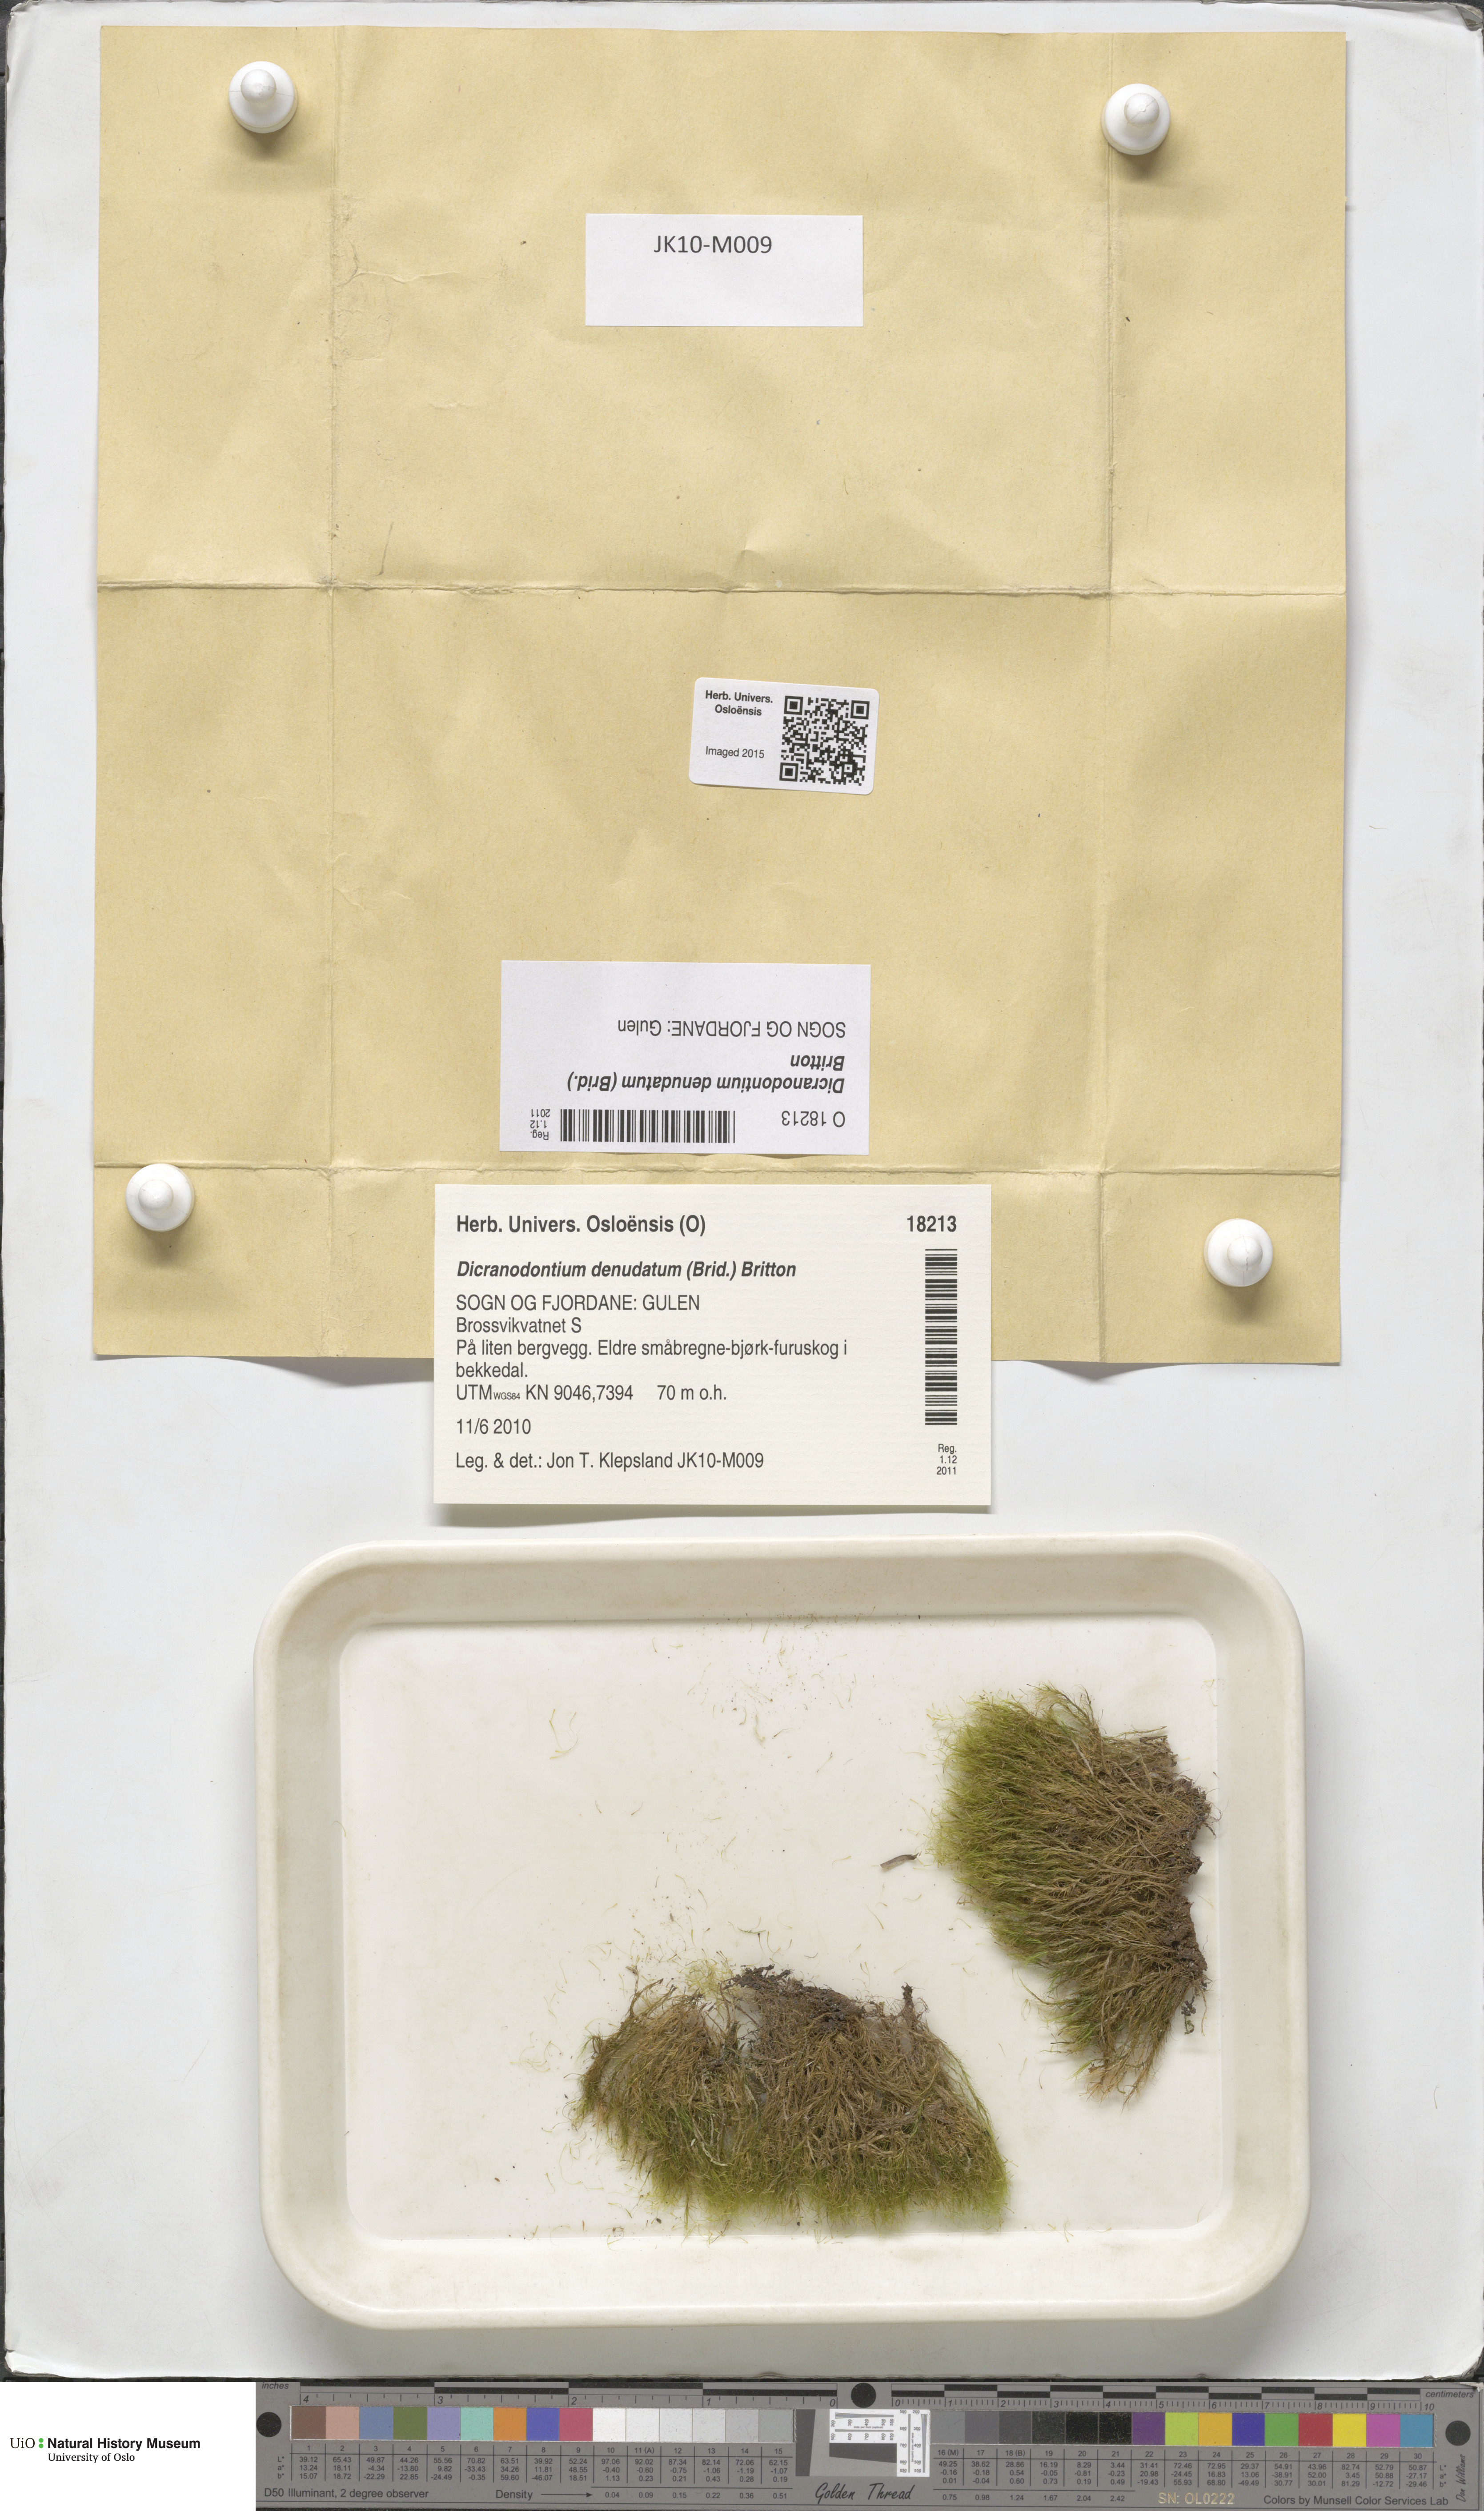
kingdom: Plantae
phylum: Bryophyta
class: Bryopsida
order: Dicranales
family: Leucobryaceae
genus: Dicranodontium
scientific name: Dicranodontium denudatum
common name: Beaked bow moss
